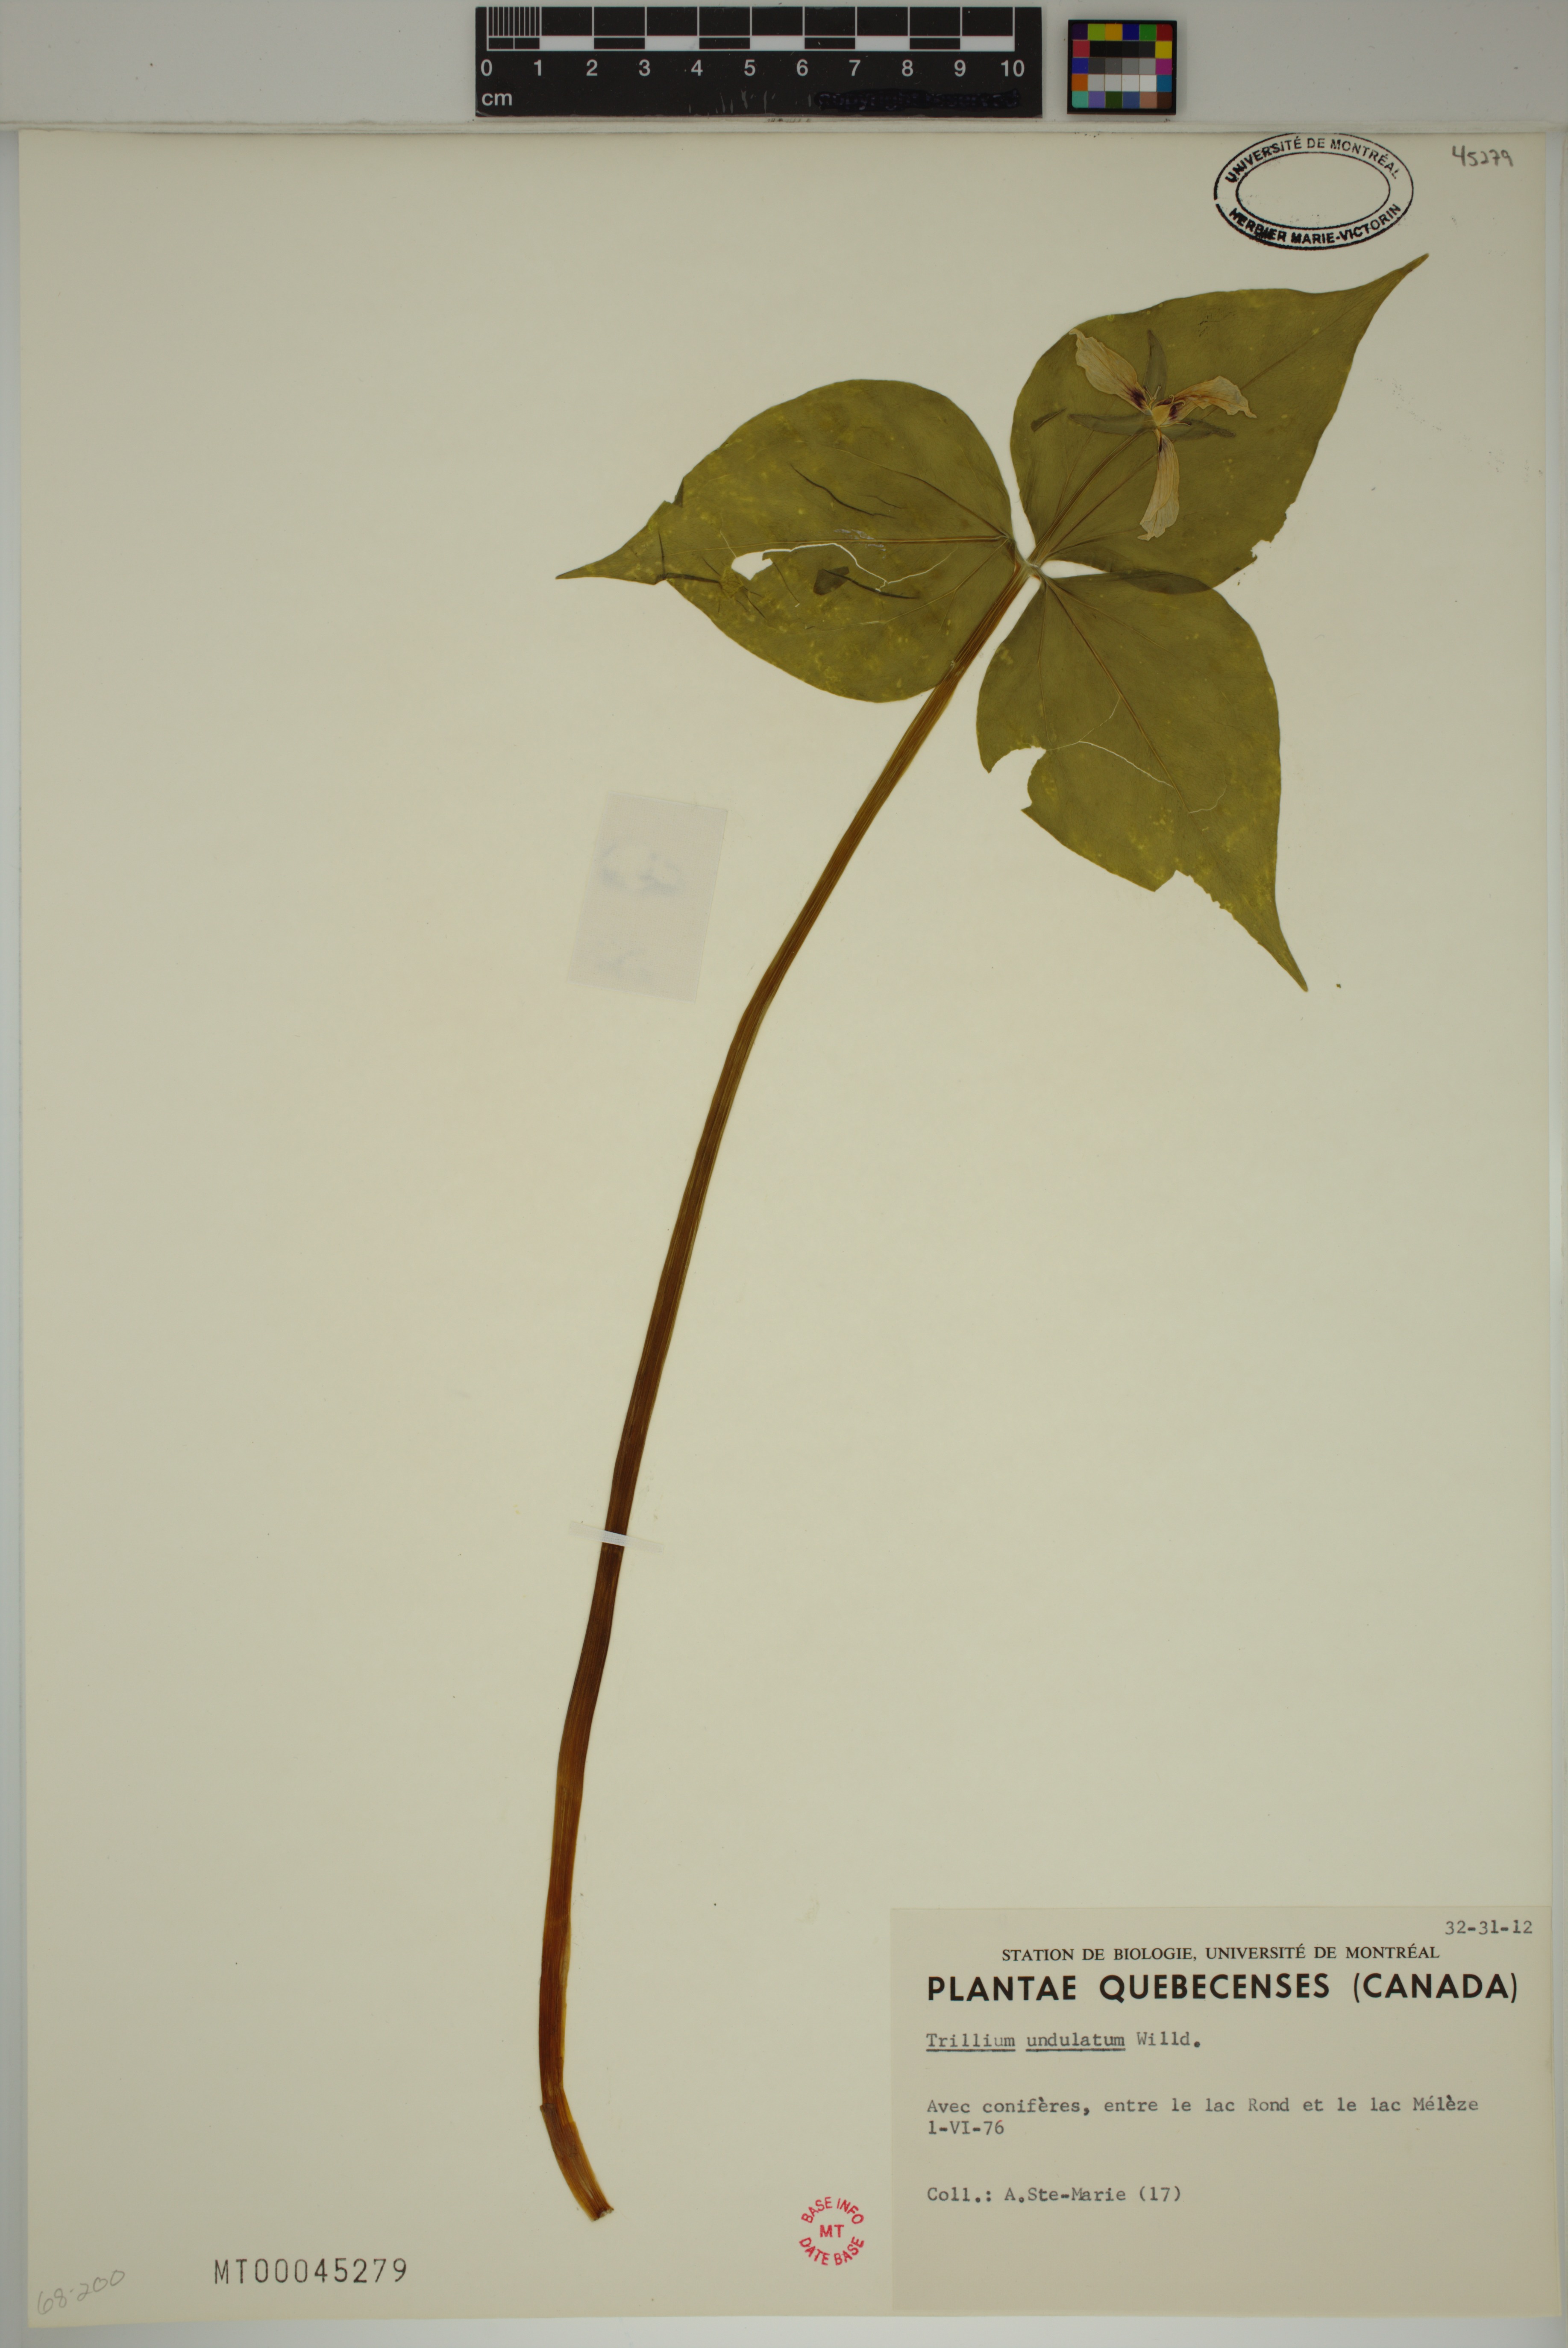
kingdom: Plantae
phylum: Tracheophyta
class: Liliopsida
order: Liliales
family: Melanthiaceae
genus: Trillium
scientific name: Trillium undulatum
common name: Paint trillium
